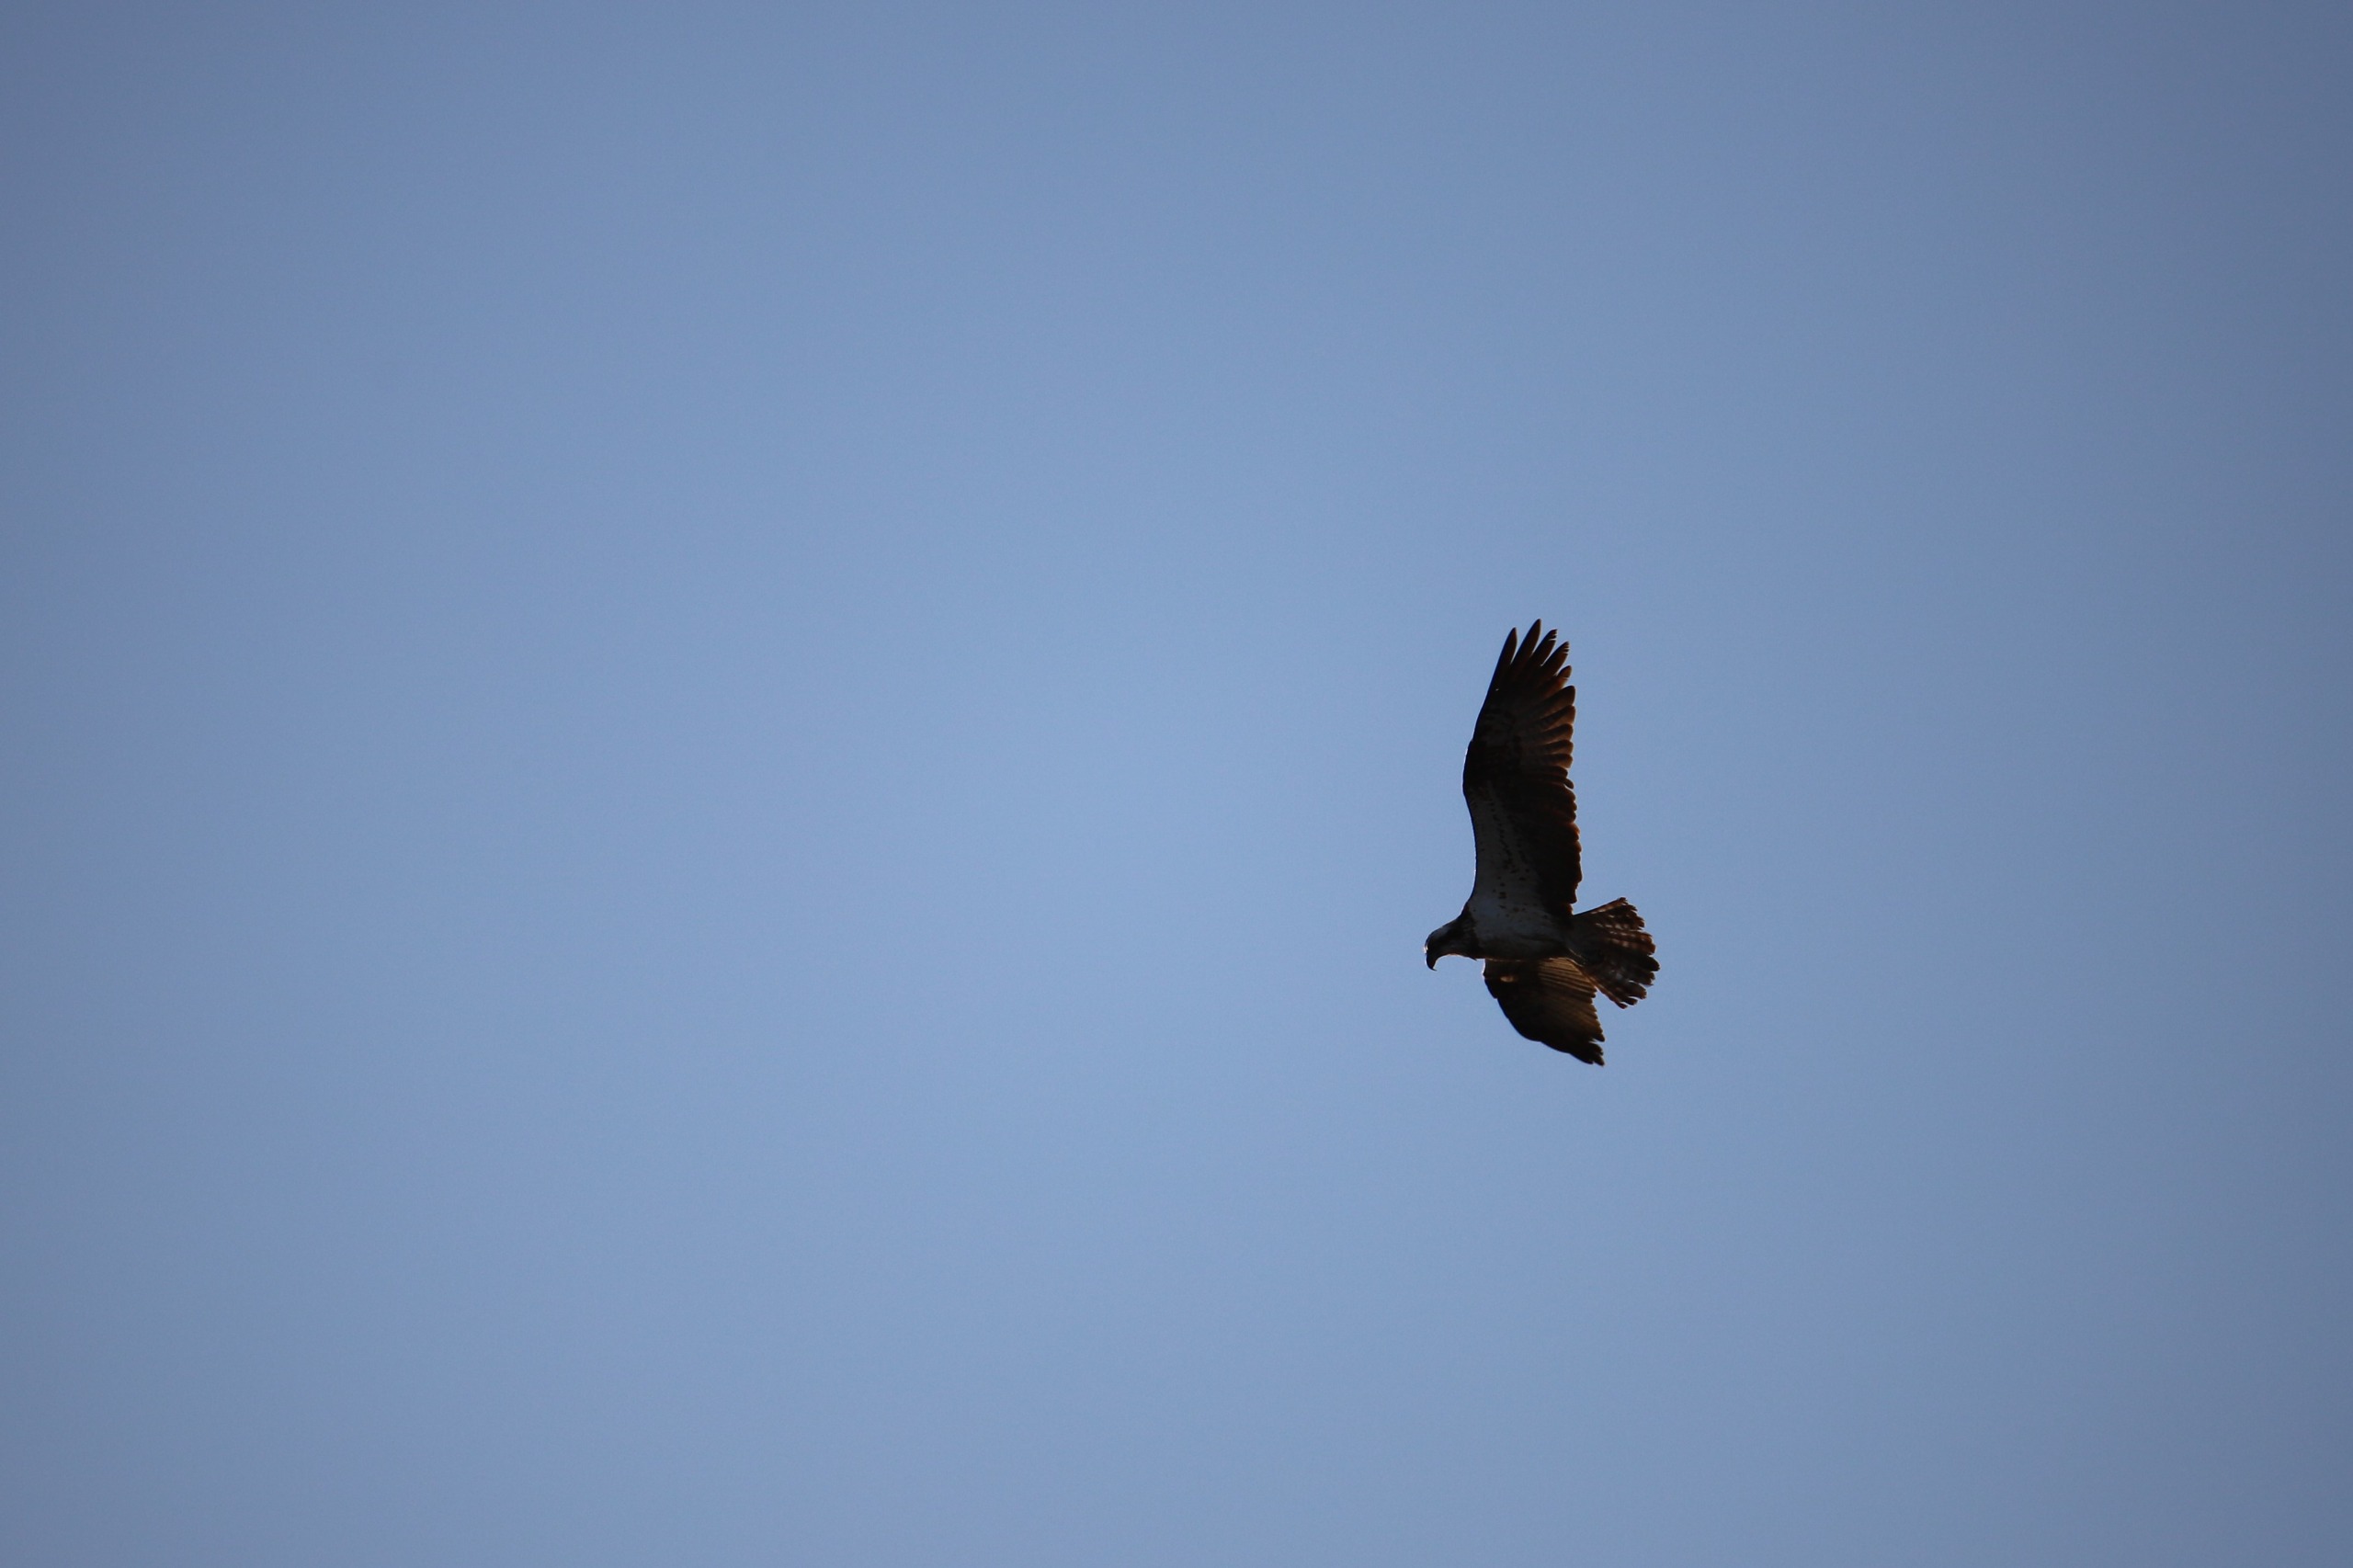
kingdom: Animalia
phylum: Chordata
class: Aves
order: Accipitriformes
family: Pandionidae
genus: Pandion
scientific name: Pandion haliaetus
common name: Fiskeørn
